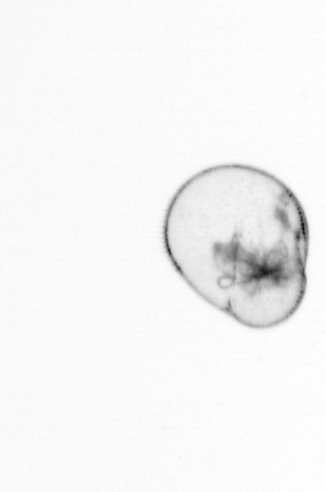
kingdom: Chromista
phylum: Myzozoa
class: Dinophyceae
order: Noctilucales
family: Noctilucaceae
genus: Noctiluca
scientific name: Noctiluca scintillans
